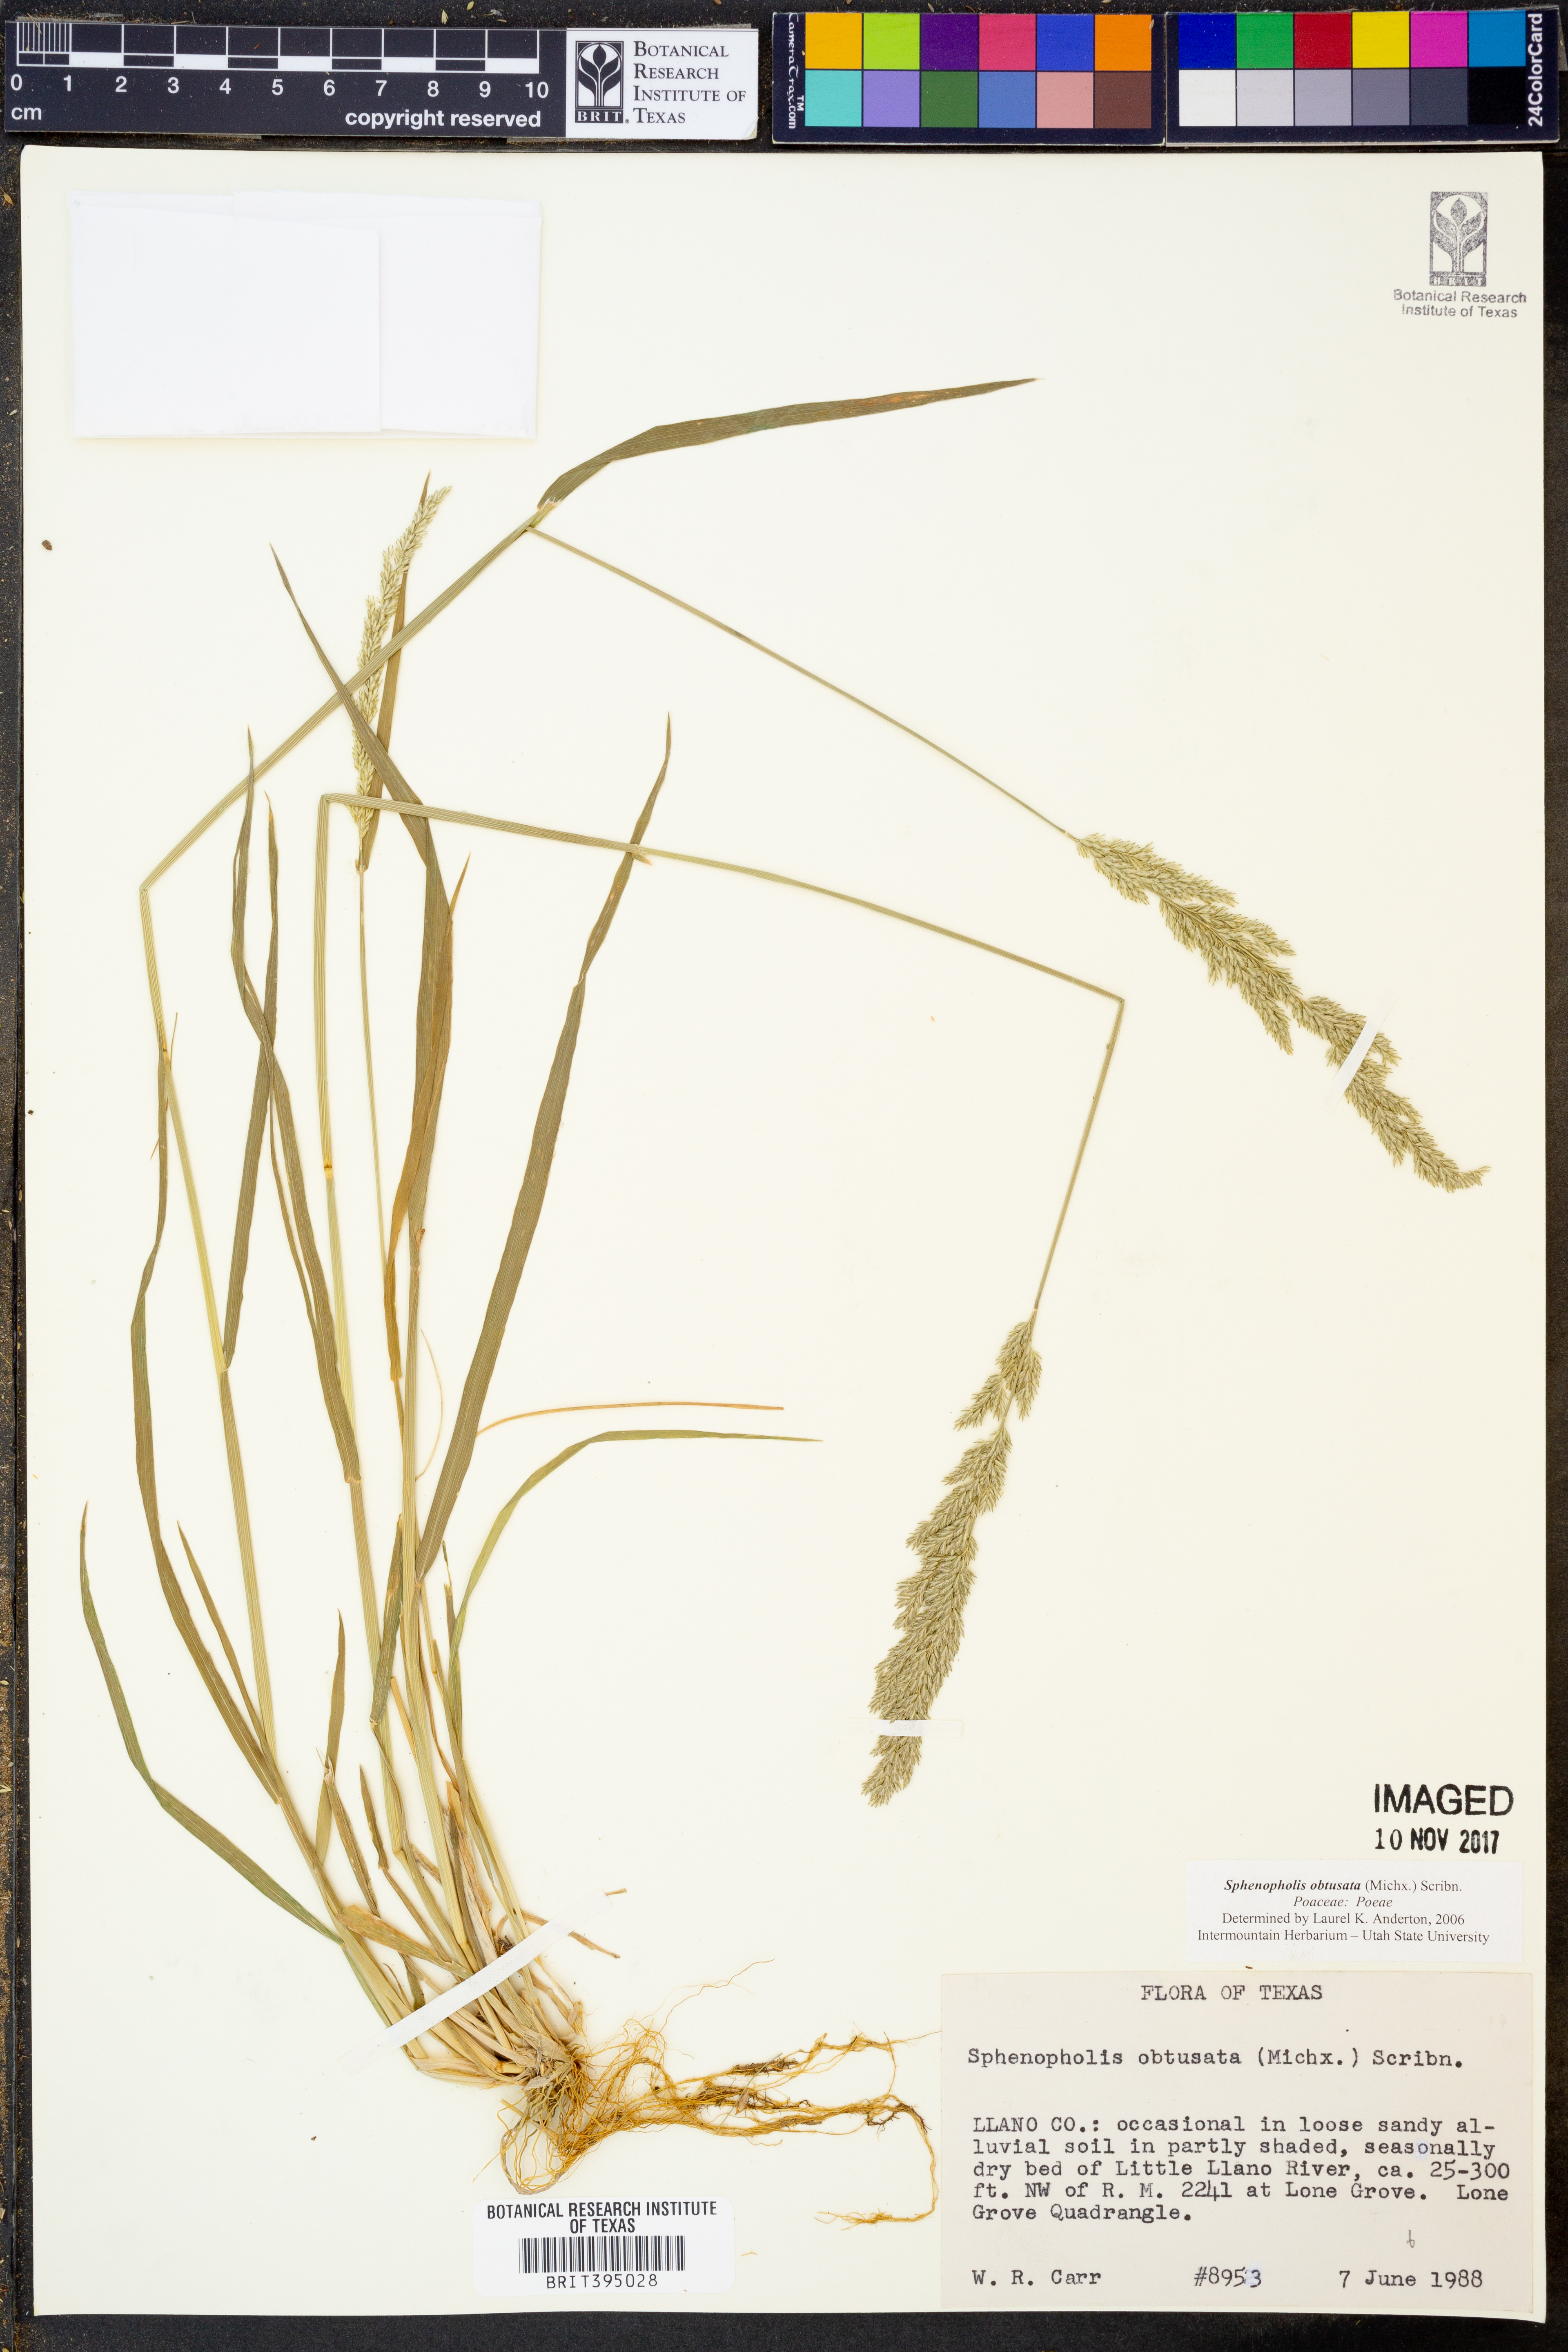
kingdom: Plantae
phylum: Tracheophyta
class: Liliopsida
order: Poales
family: Poaceae
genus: Sphenopholis
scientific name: Sphenopholis obtusata
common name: Prairie grass
